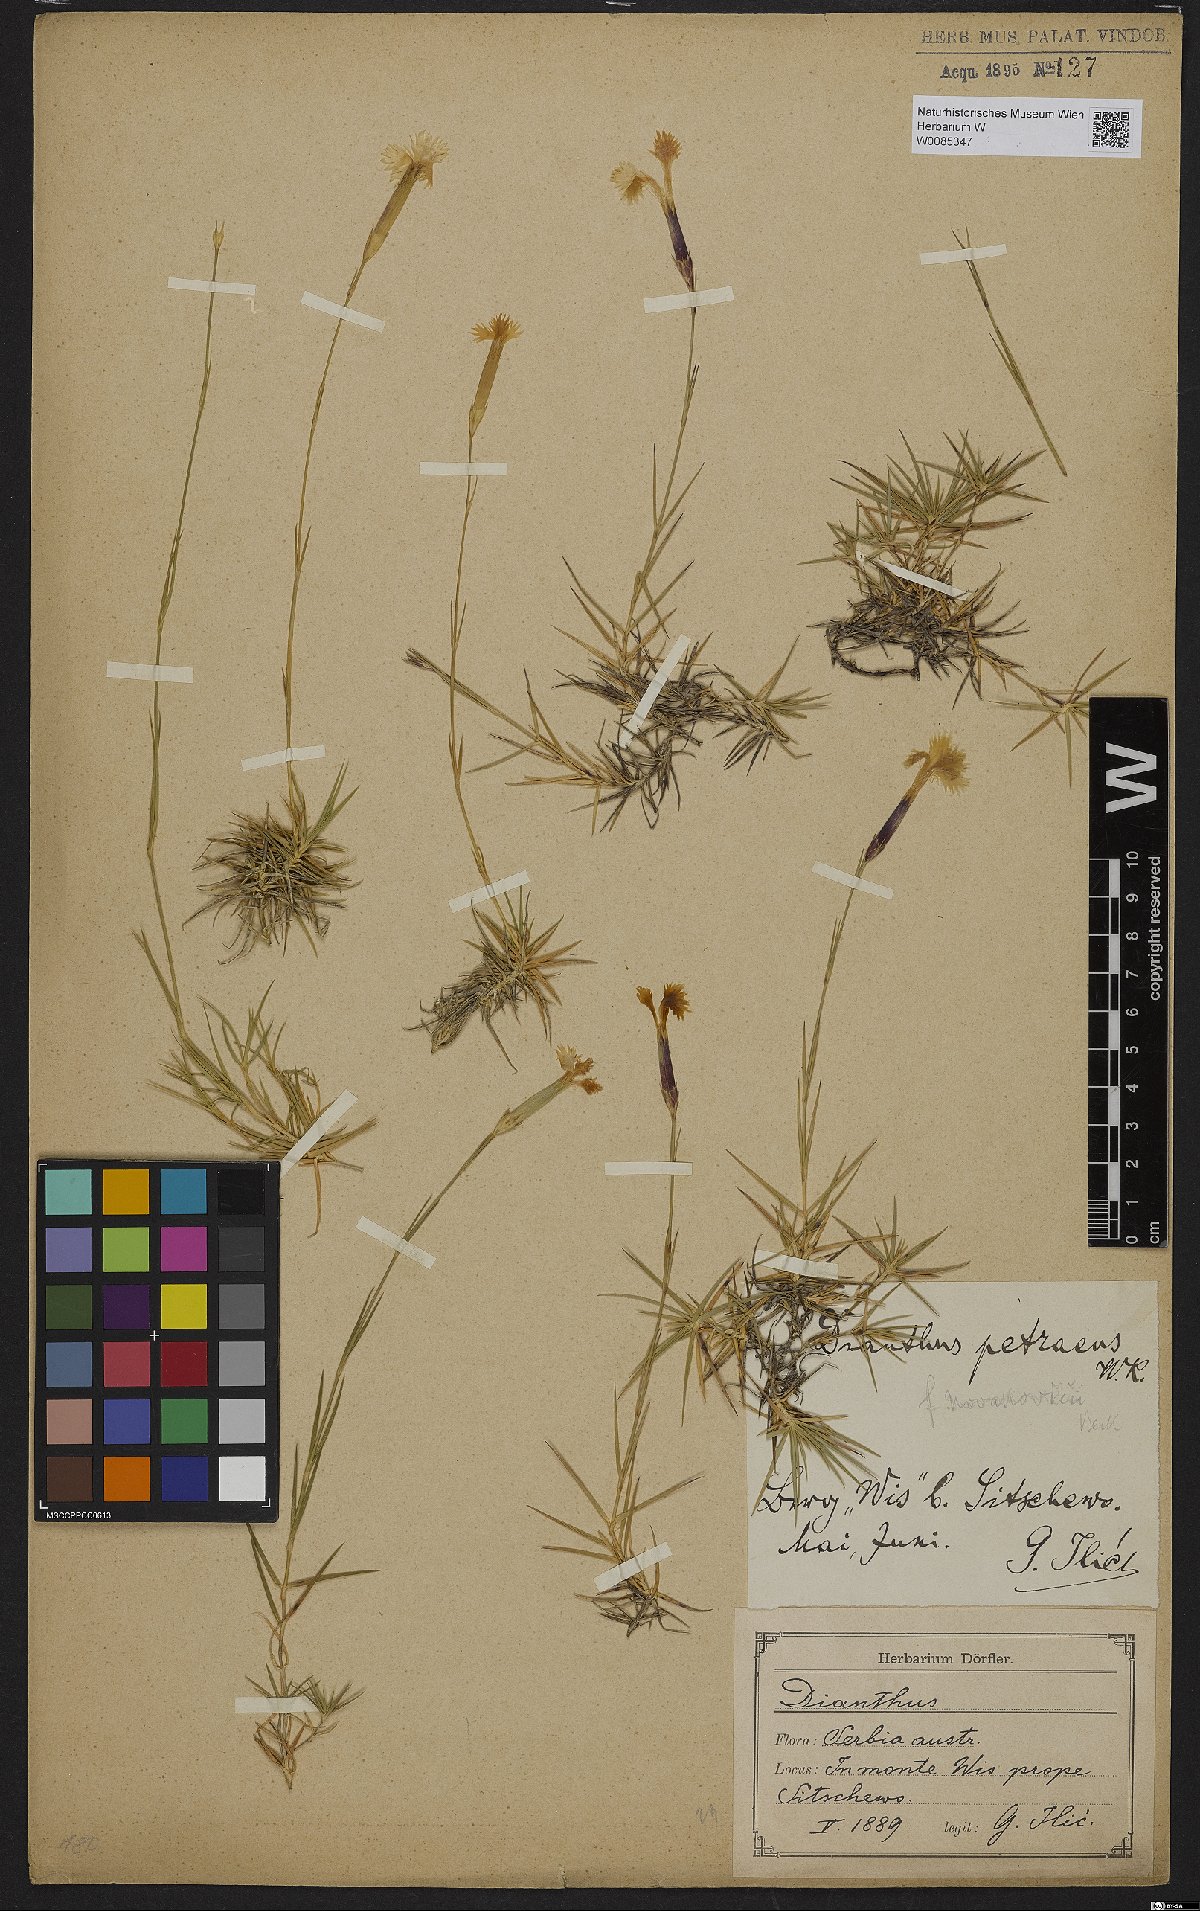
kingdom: Plantae
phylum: Tracheophyta
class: Magnoliopsida
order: Caryophyllales
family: Caryophyllaceae
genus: Dianthus
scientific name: Dianthus petraeus
